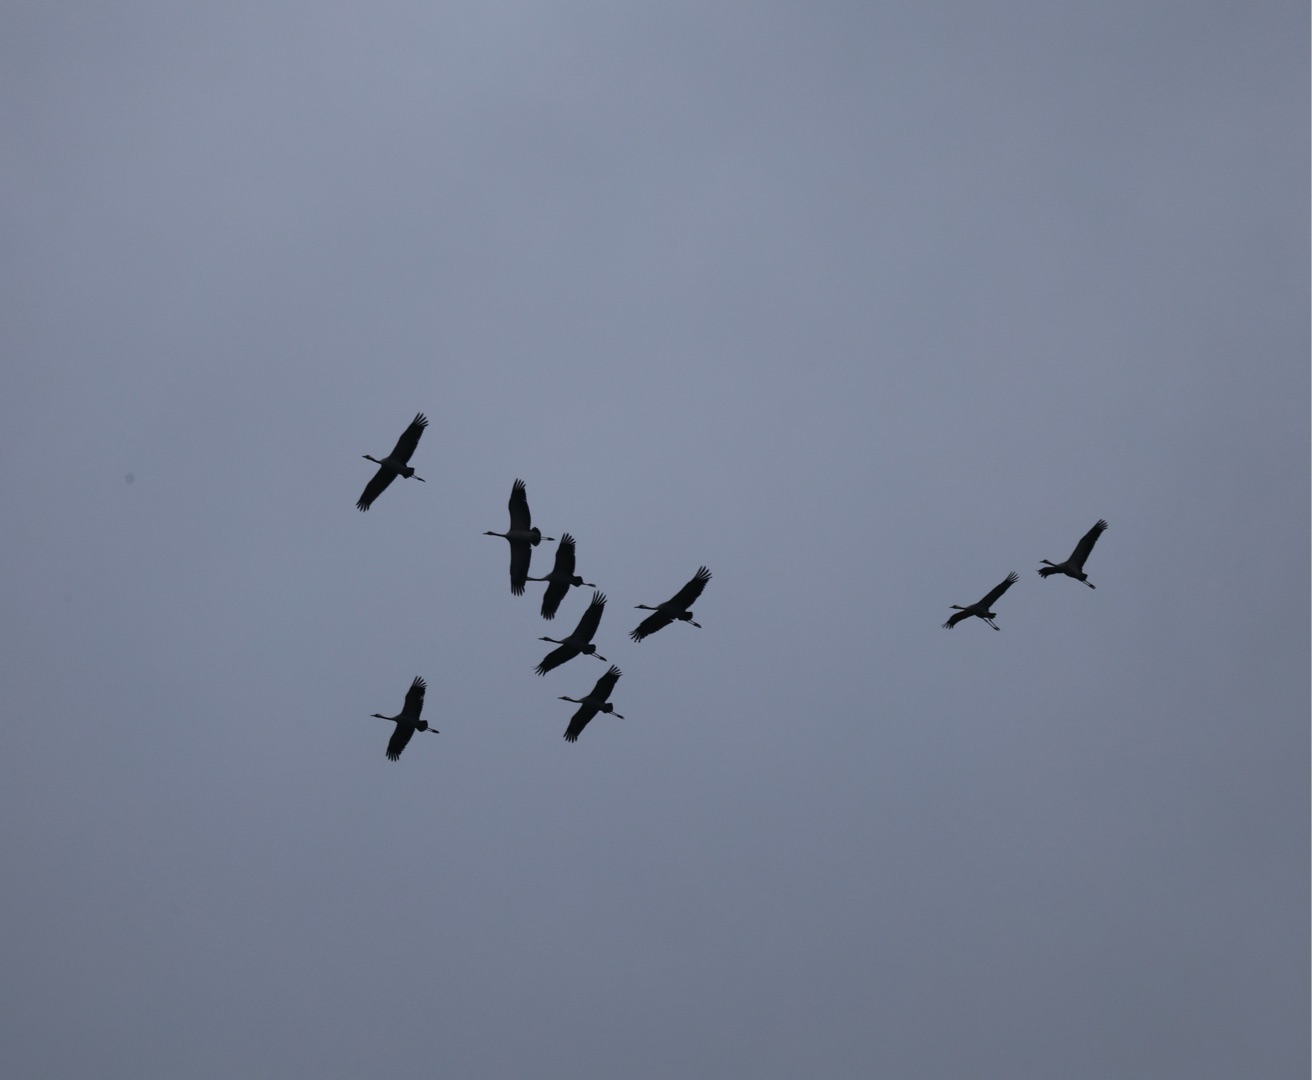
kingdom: Animalia
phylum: Chordata
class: Aves
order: Gruiformes
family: Gruidae
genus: Grus
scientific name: Grus grus
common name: Trane
